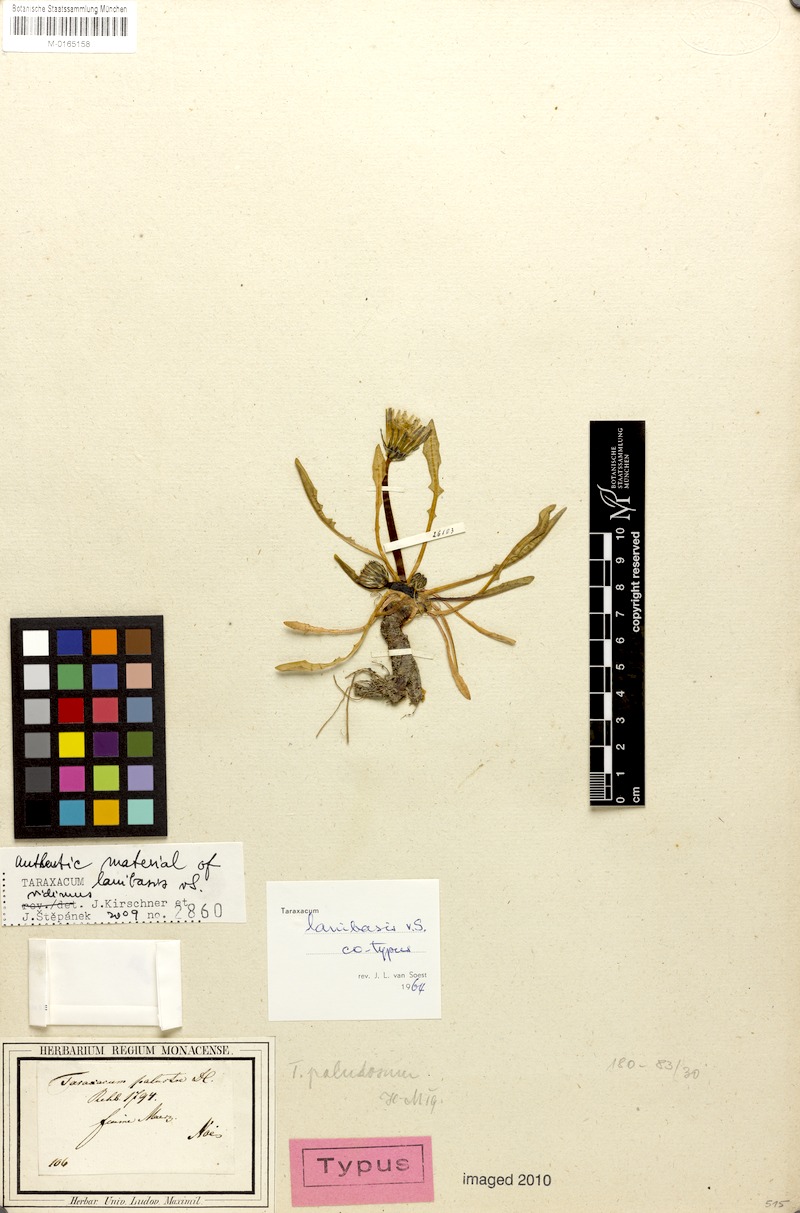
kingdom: Plantae
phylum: Tracheophyta
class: Magnoliopsida
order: Asterales
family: Asteraceae
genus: Taraxacum
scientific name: Taraxacum arachnoideum
